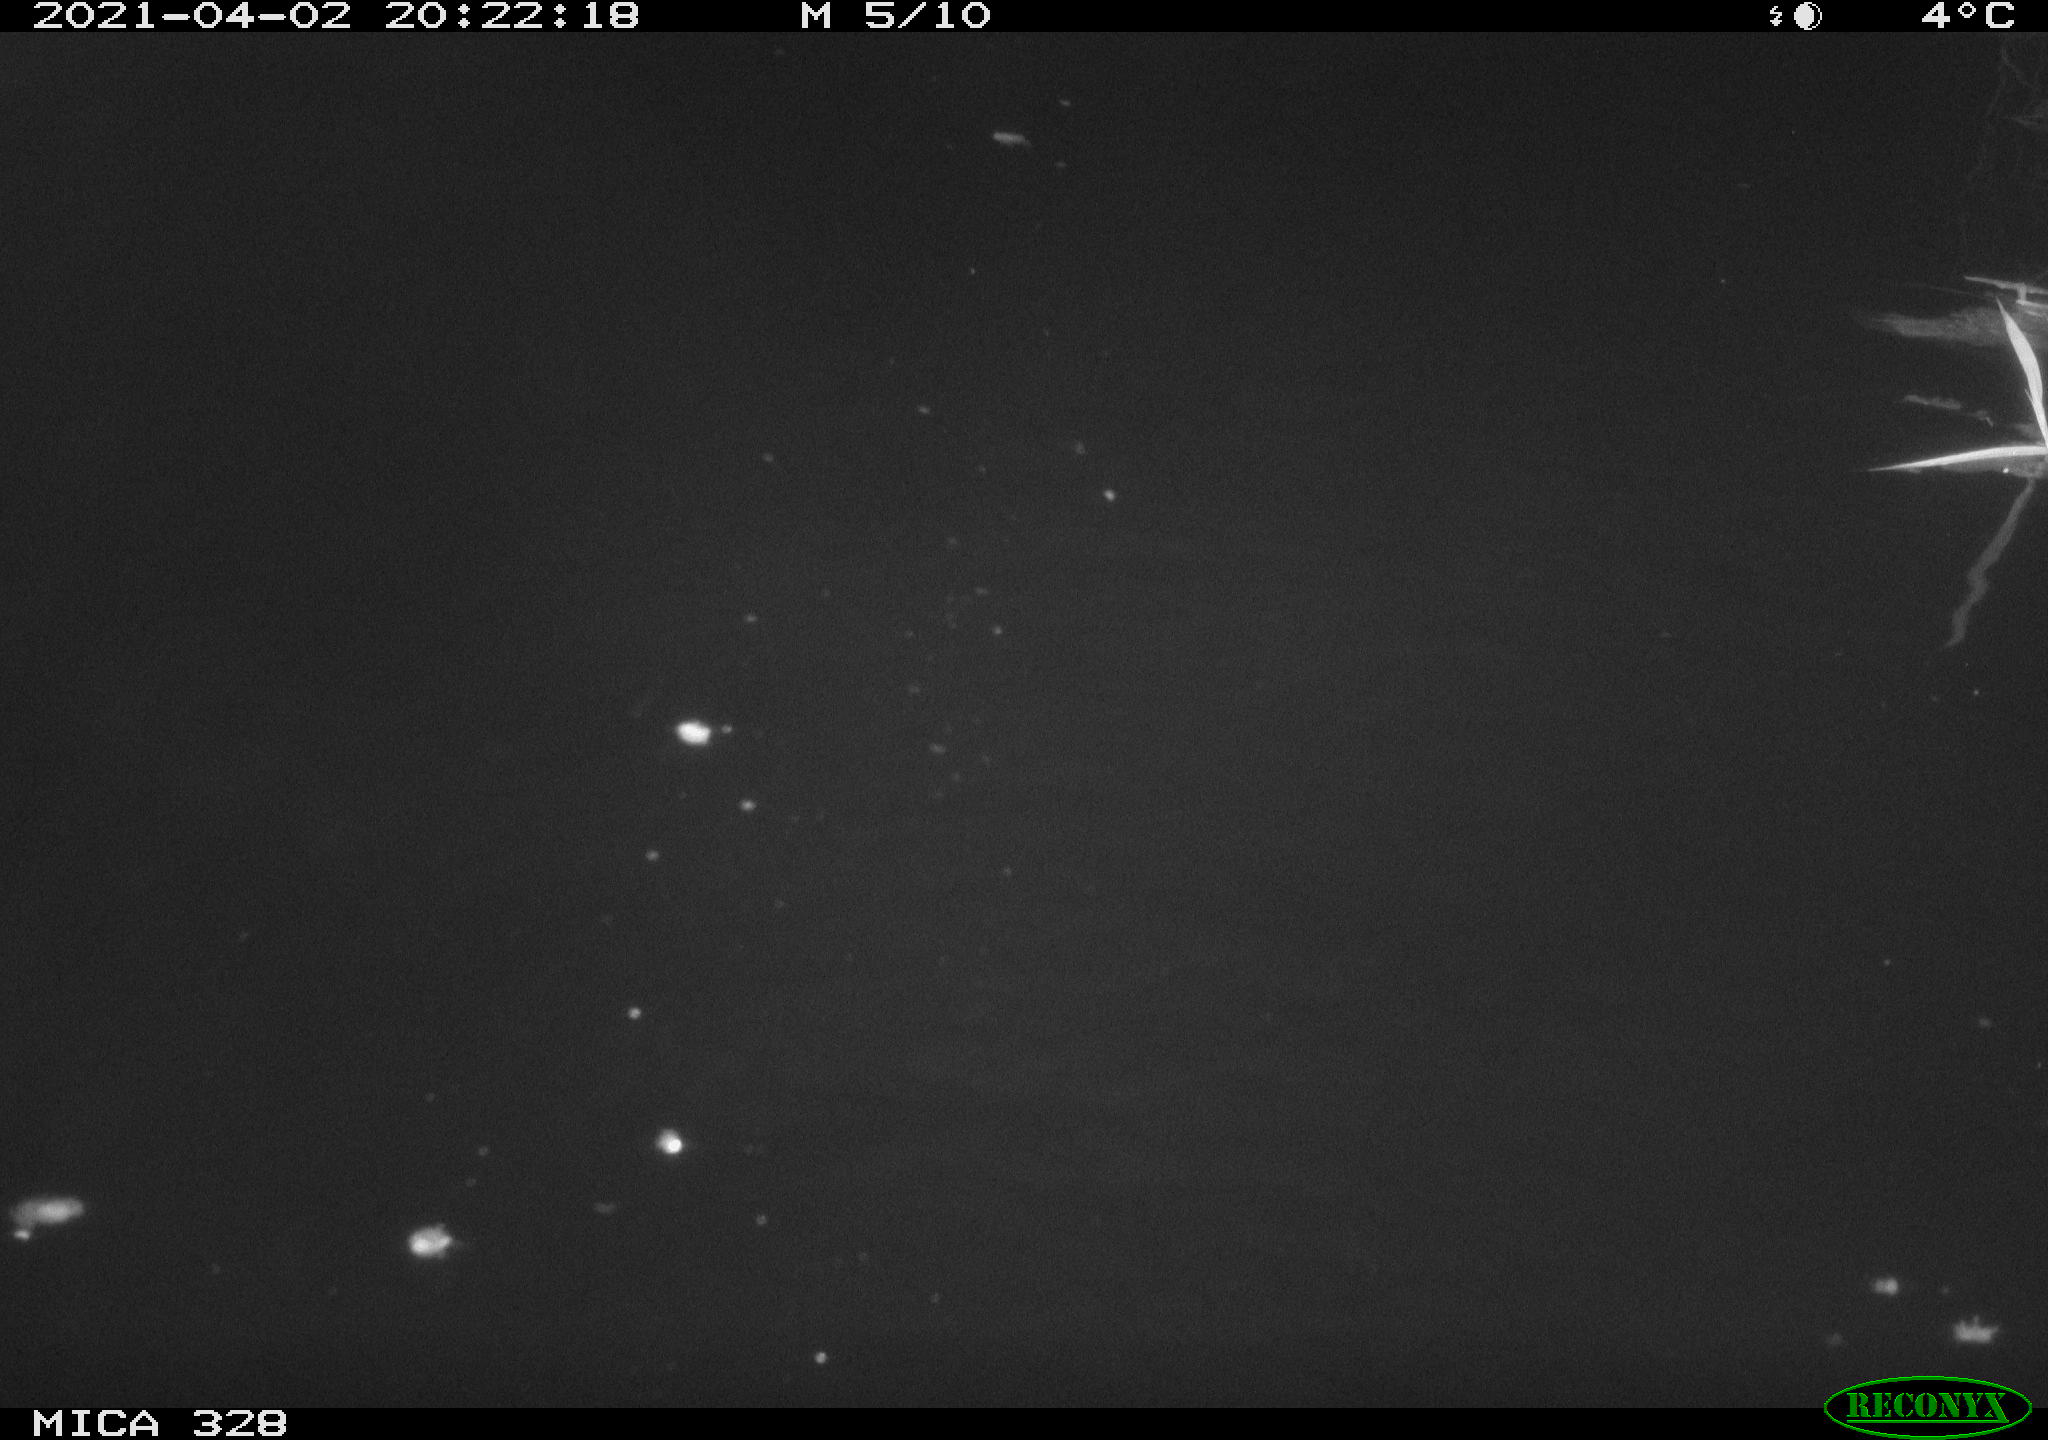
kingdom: Animalia
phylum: Chordata
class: Mammalia
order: Rodentia
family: Cricetidae
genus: Ondatra
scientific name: Ondatra zibethicus
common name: Muskrat
